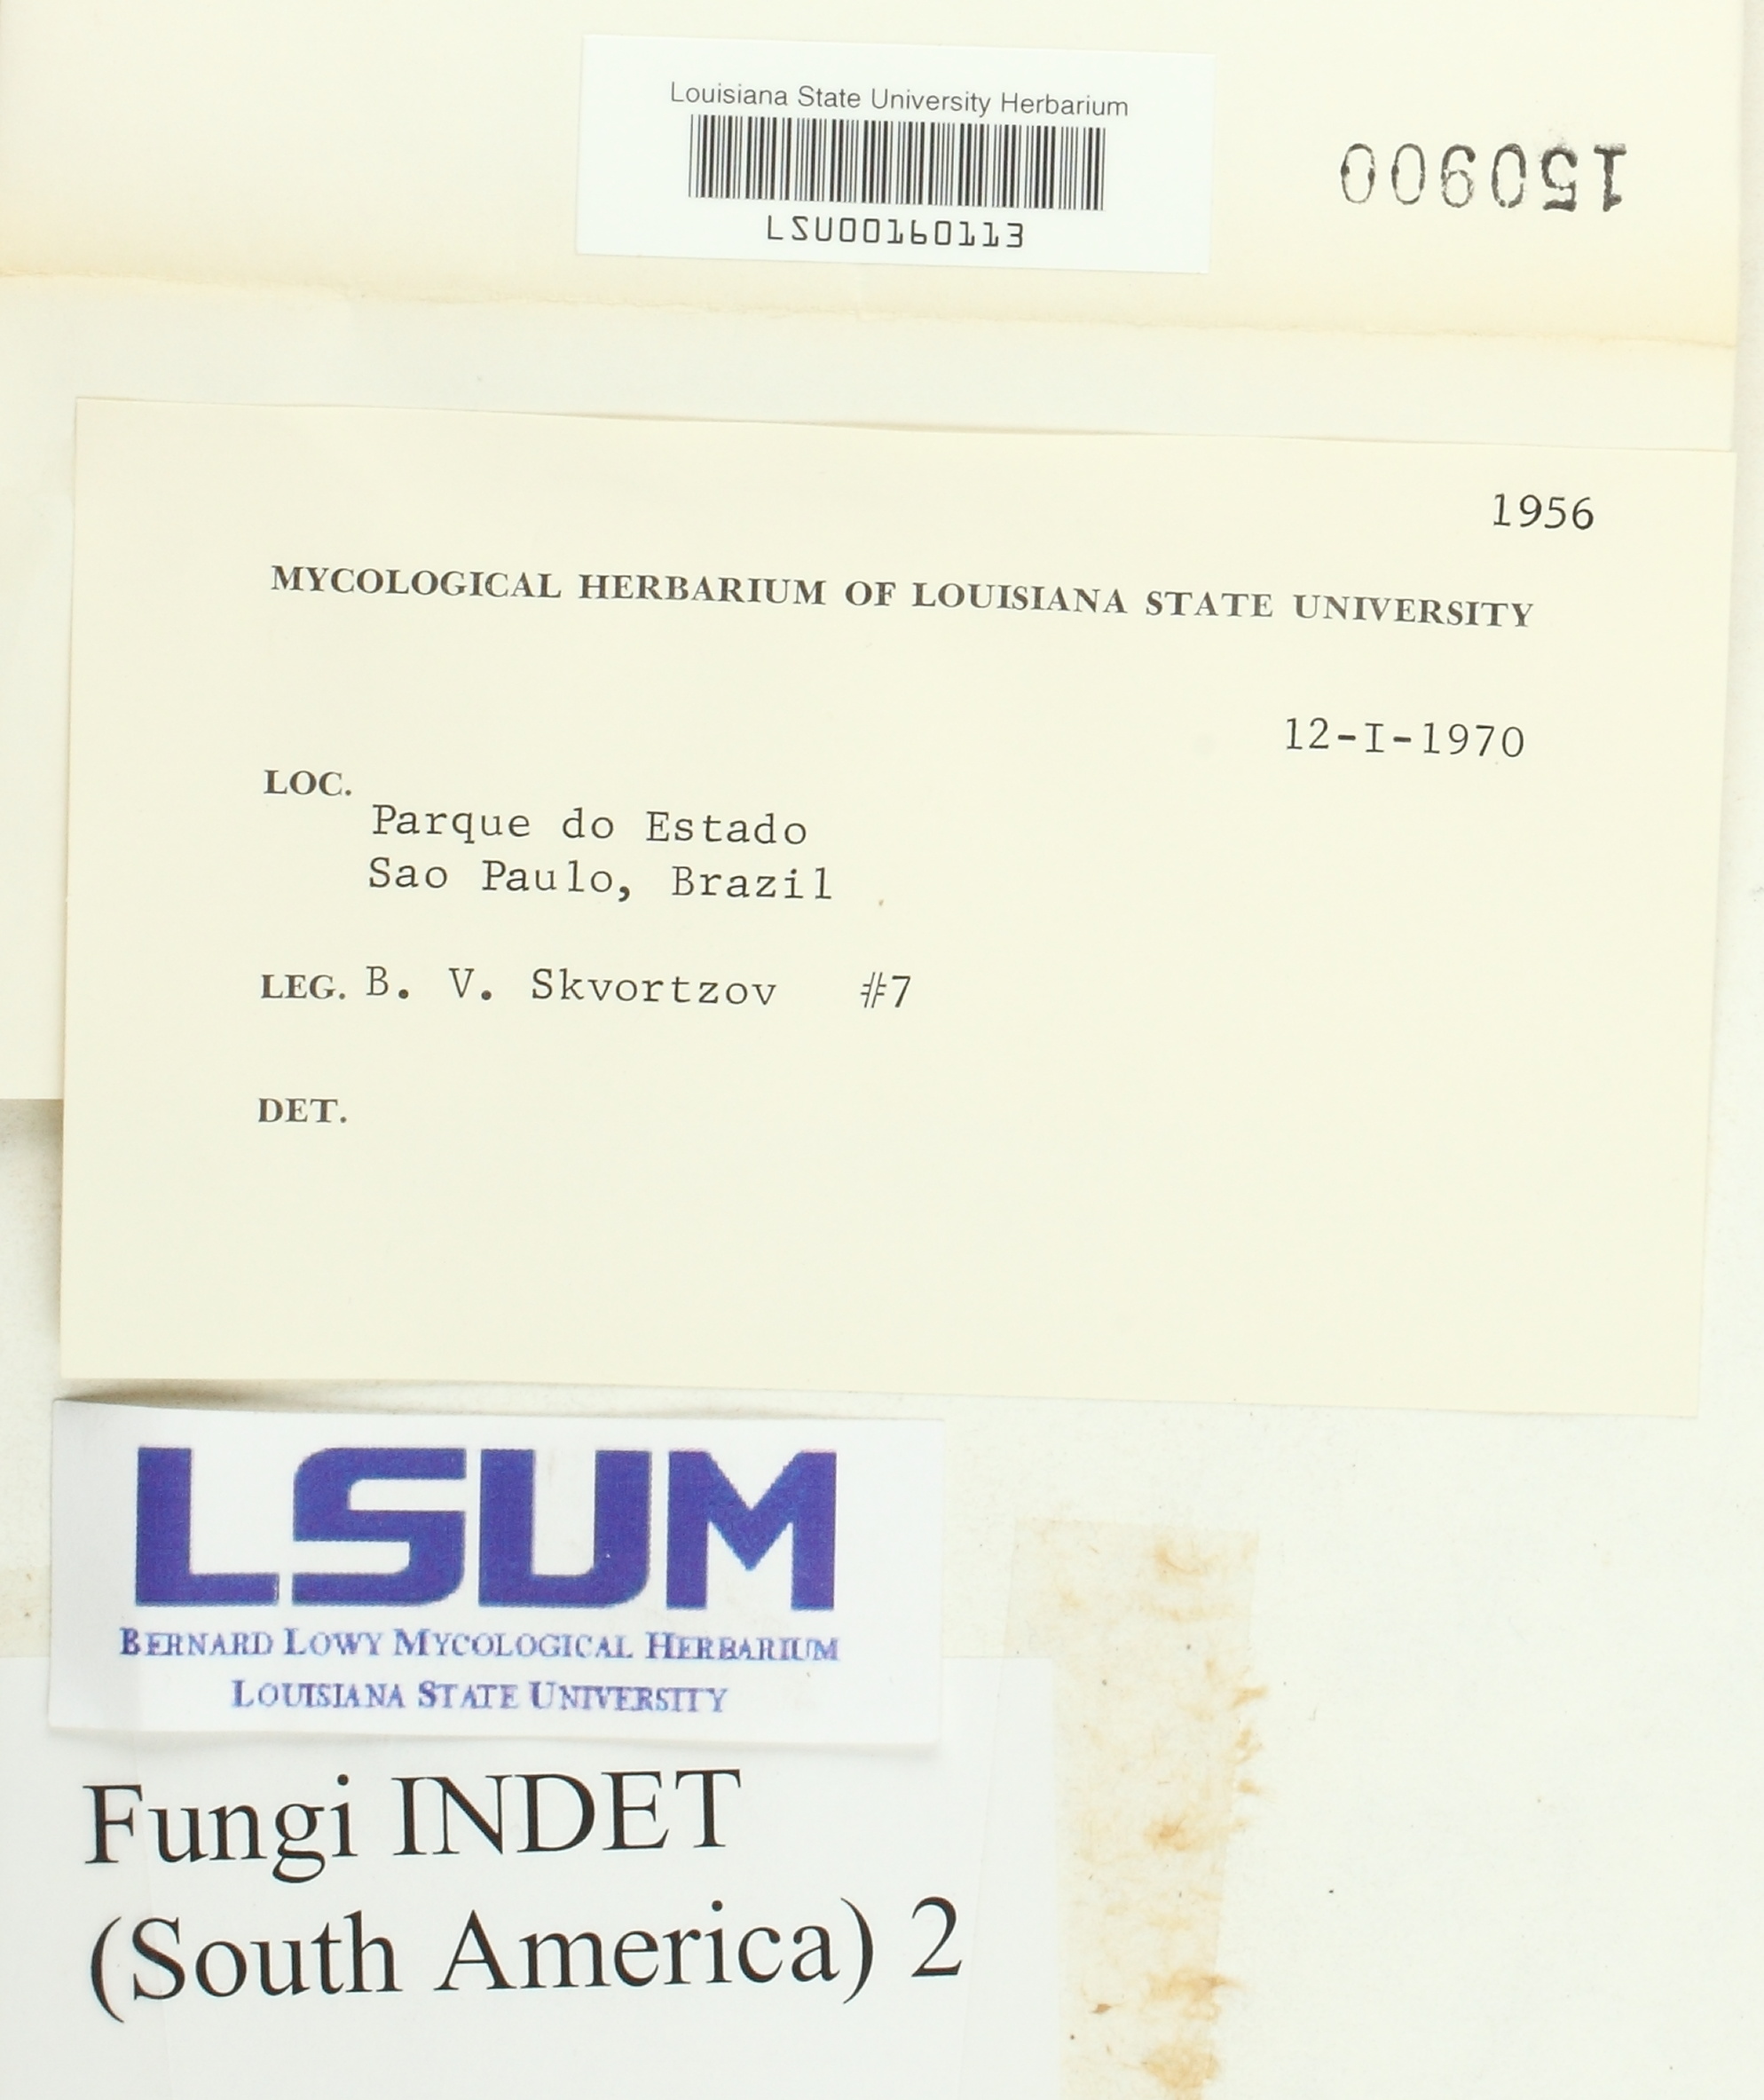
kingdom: Fungi
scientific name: Fungi
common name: Fungi
